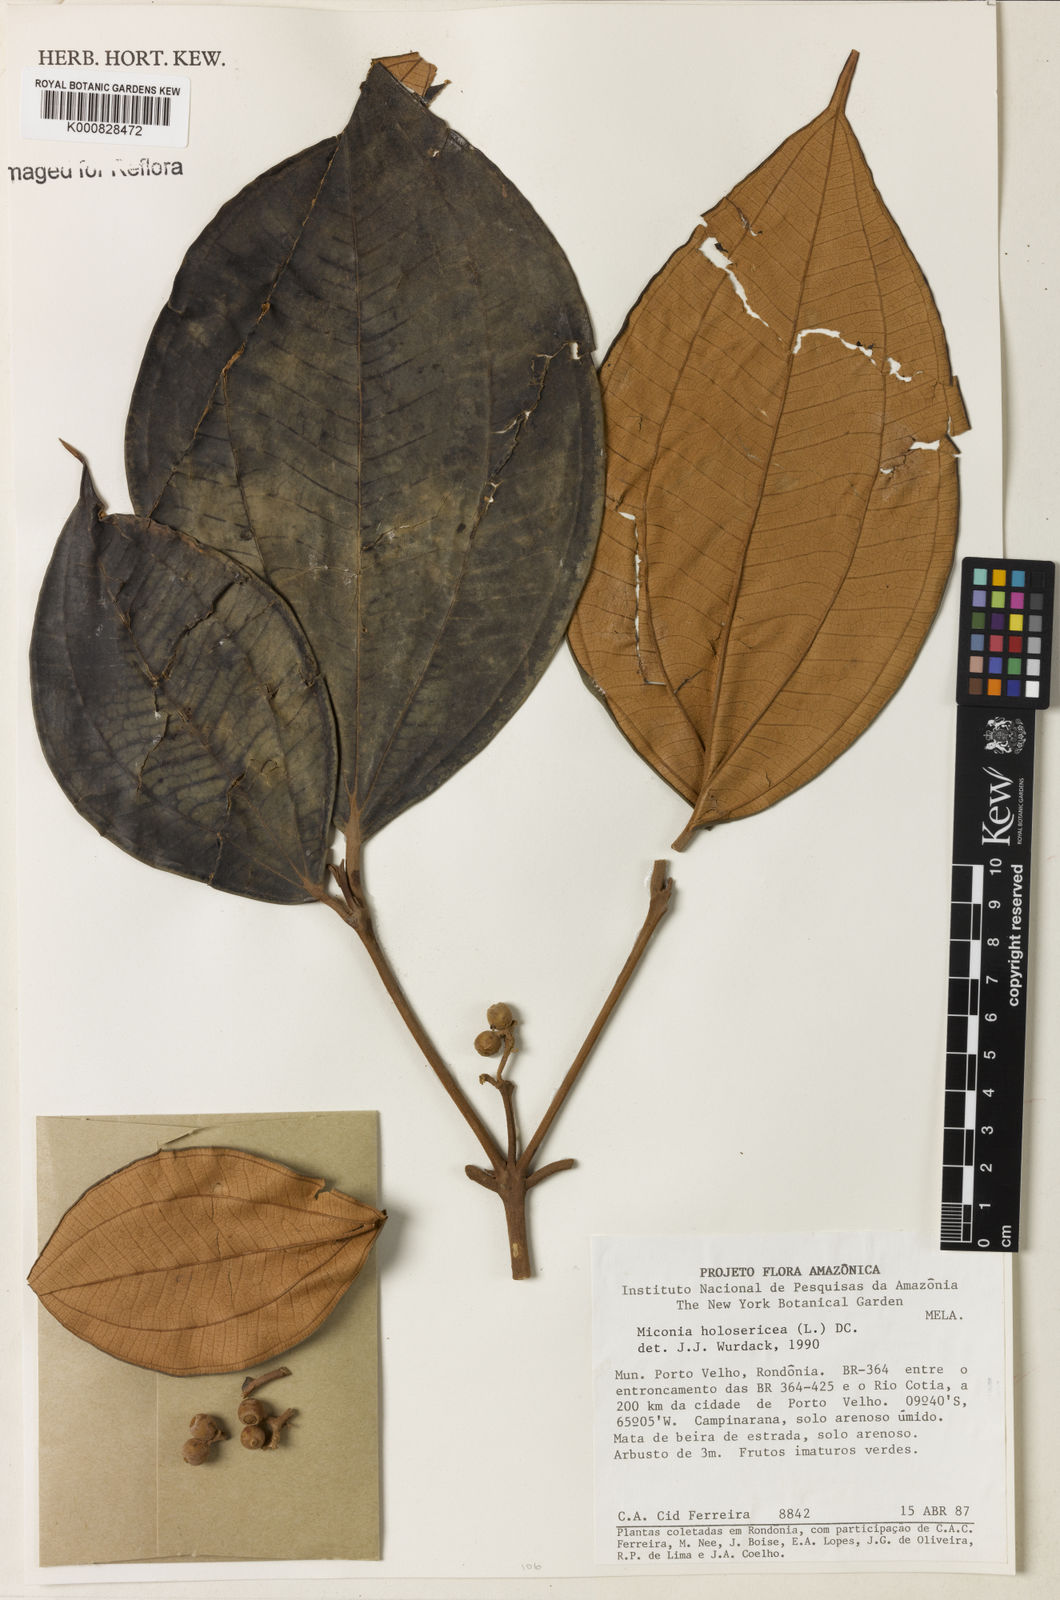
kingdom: Plantae
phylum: Tracheophyta
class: Magnoliopsida
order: Myrtales
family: Melastomataceae
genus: Miconia
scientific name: Miconia holosericea
